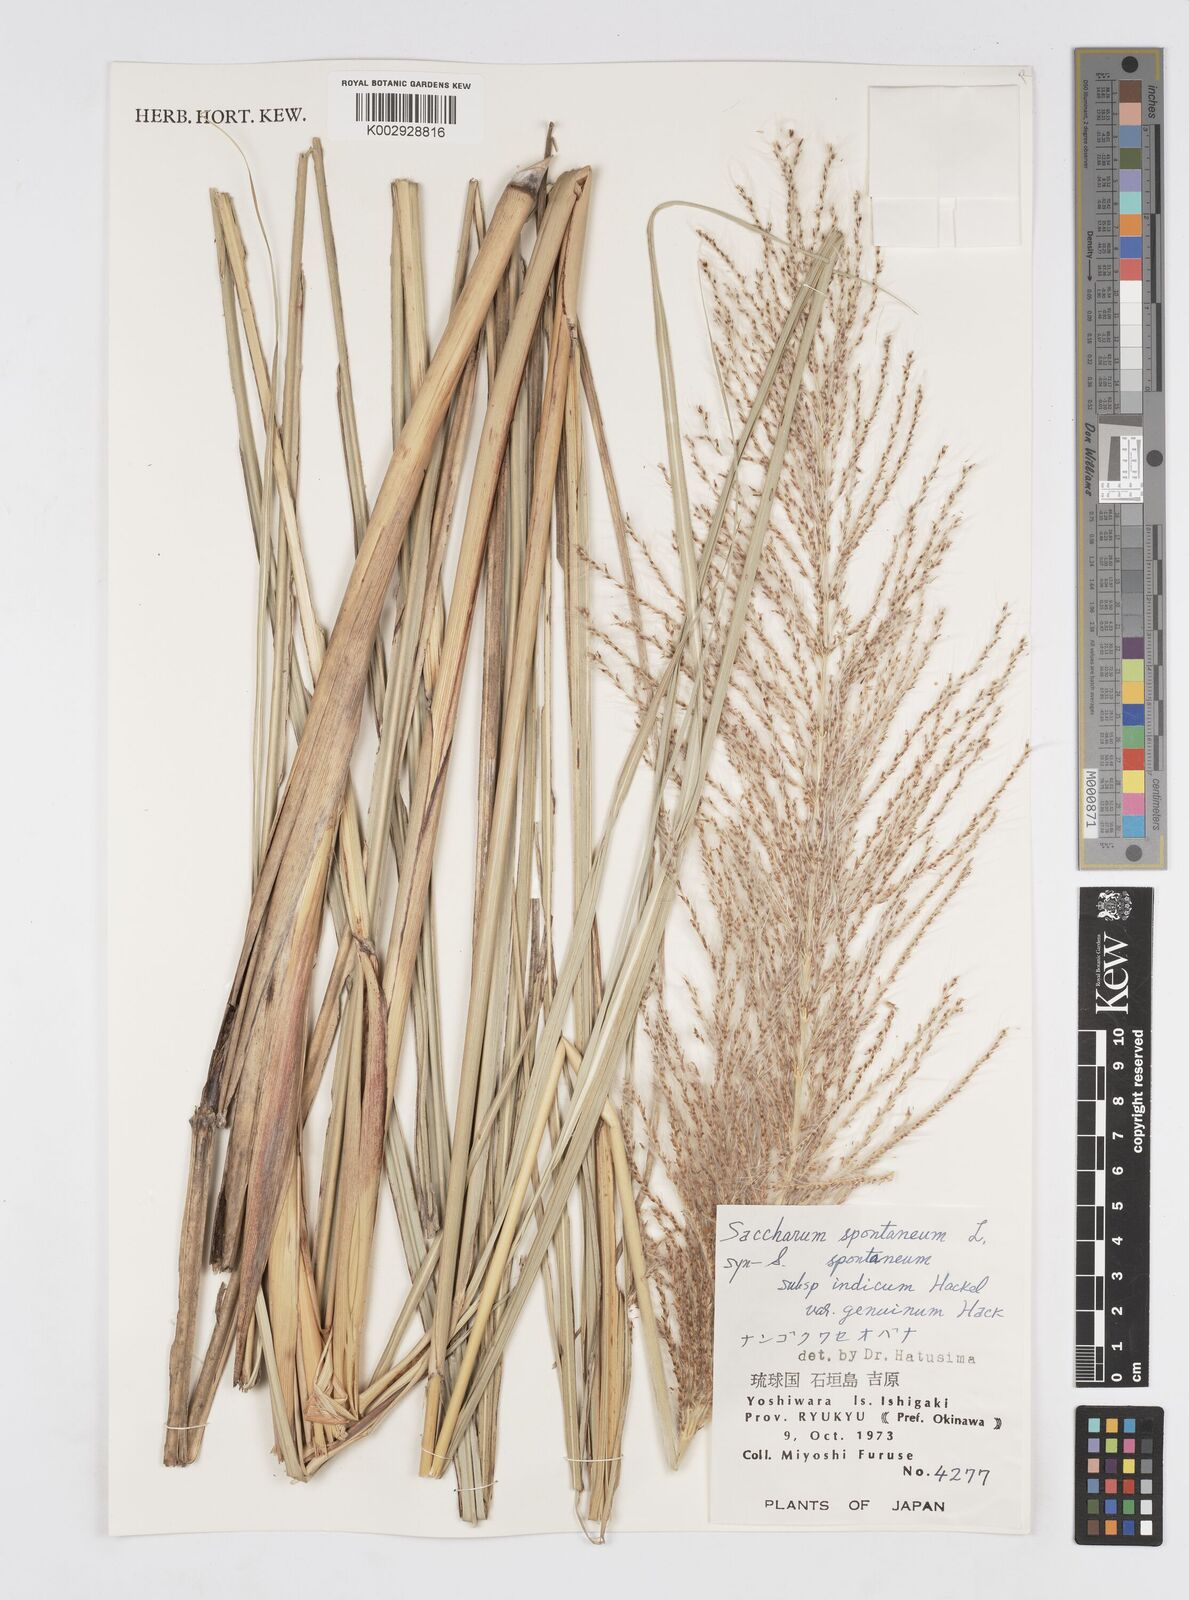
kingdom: Plantae
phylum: Tracheophyta
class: Liliopsida
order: Poales
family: Poaceae
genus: Saccharum
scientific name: Saccharum spontaneum
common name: Wild sugarcane
